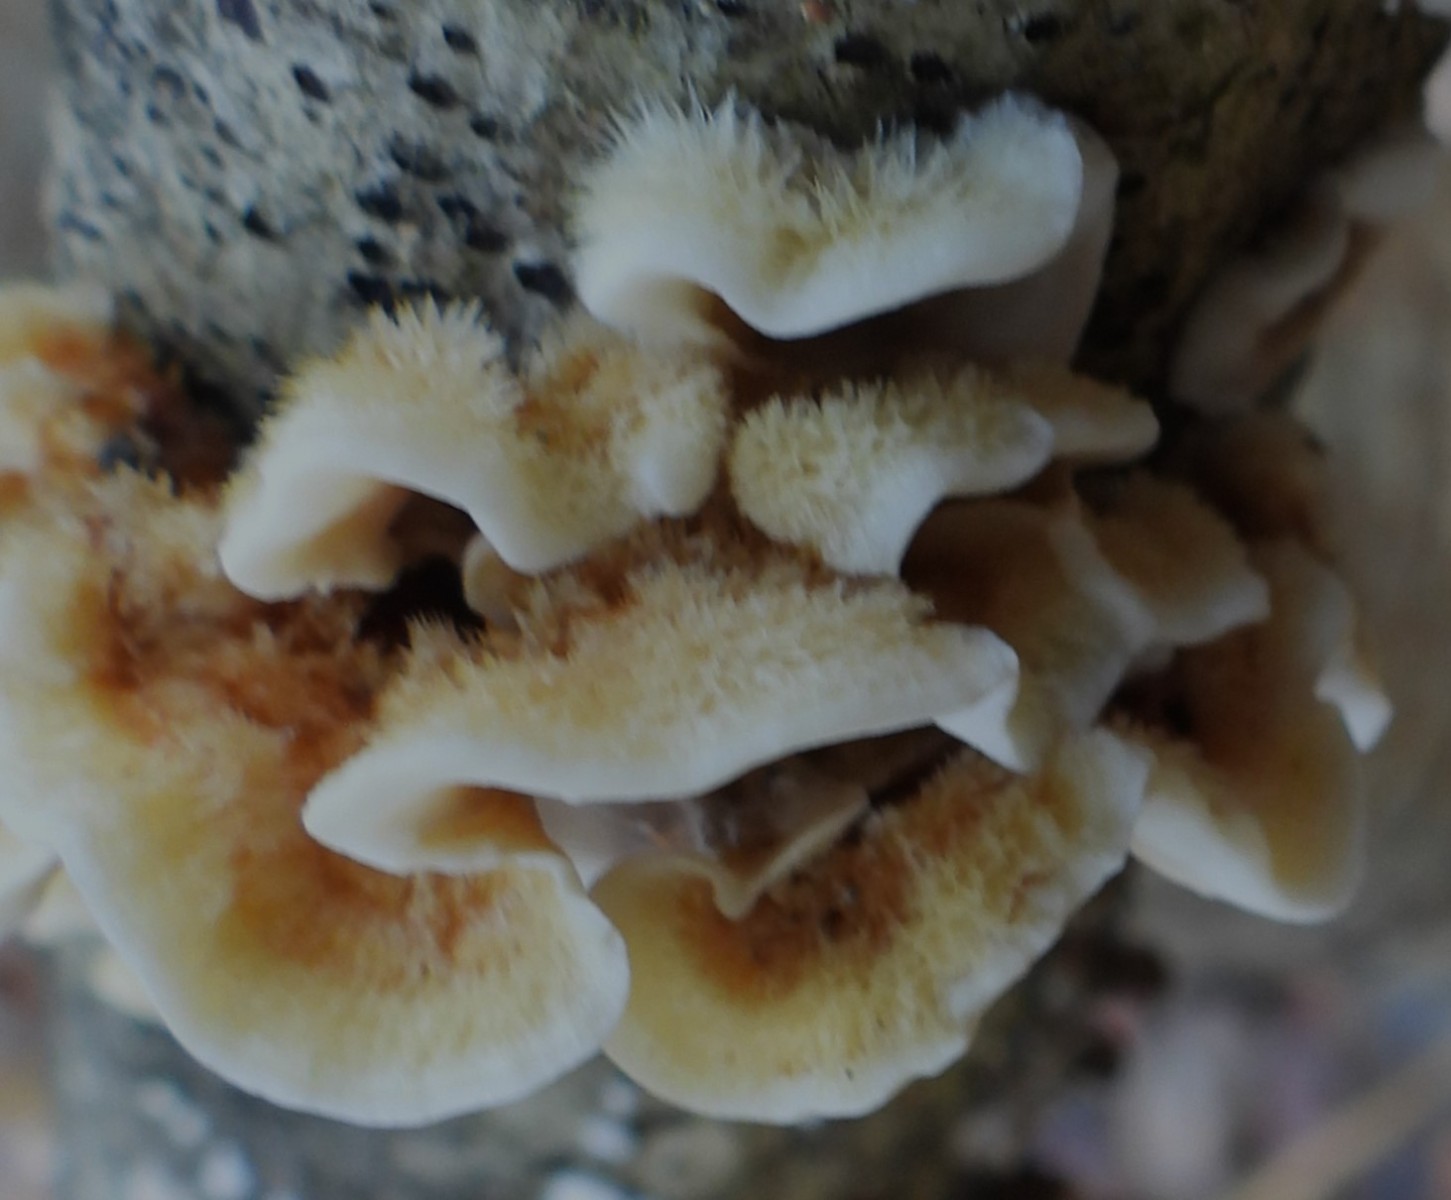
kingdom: Fungi
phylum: Basidiomycota
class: Agaricomycetes
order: Russulales
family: Stereaceae
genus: Stereum
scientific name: Stereum hirsutum
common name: håret lædersvamp
